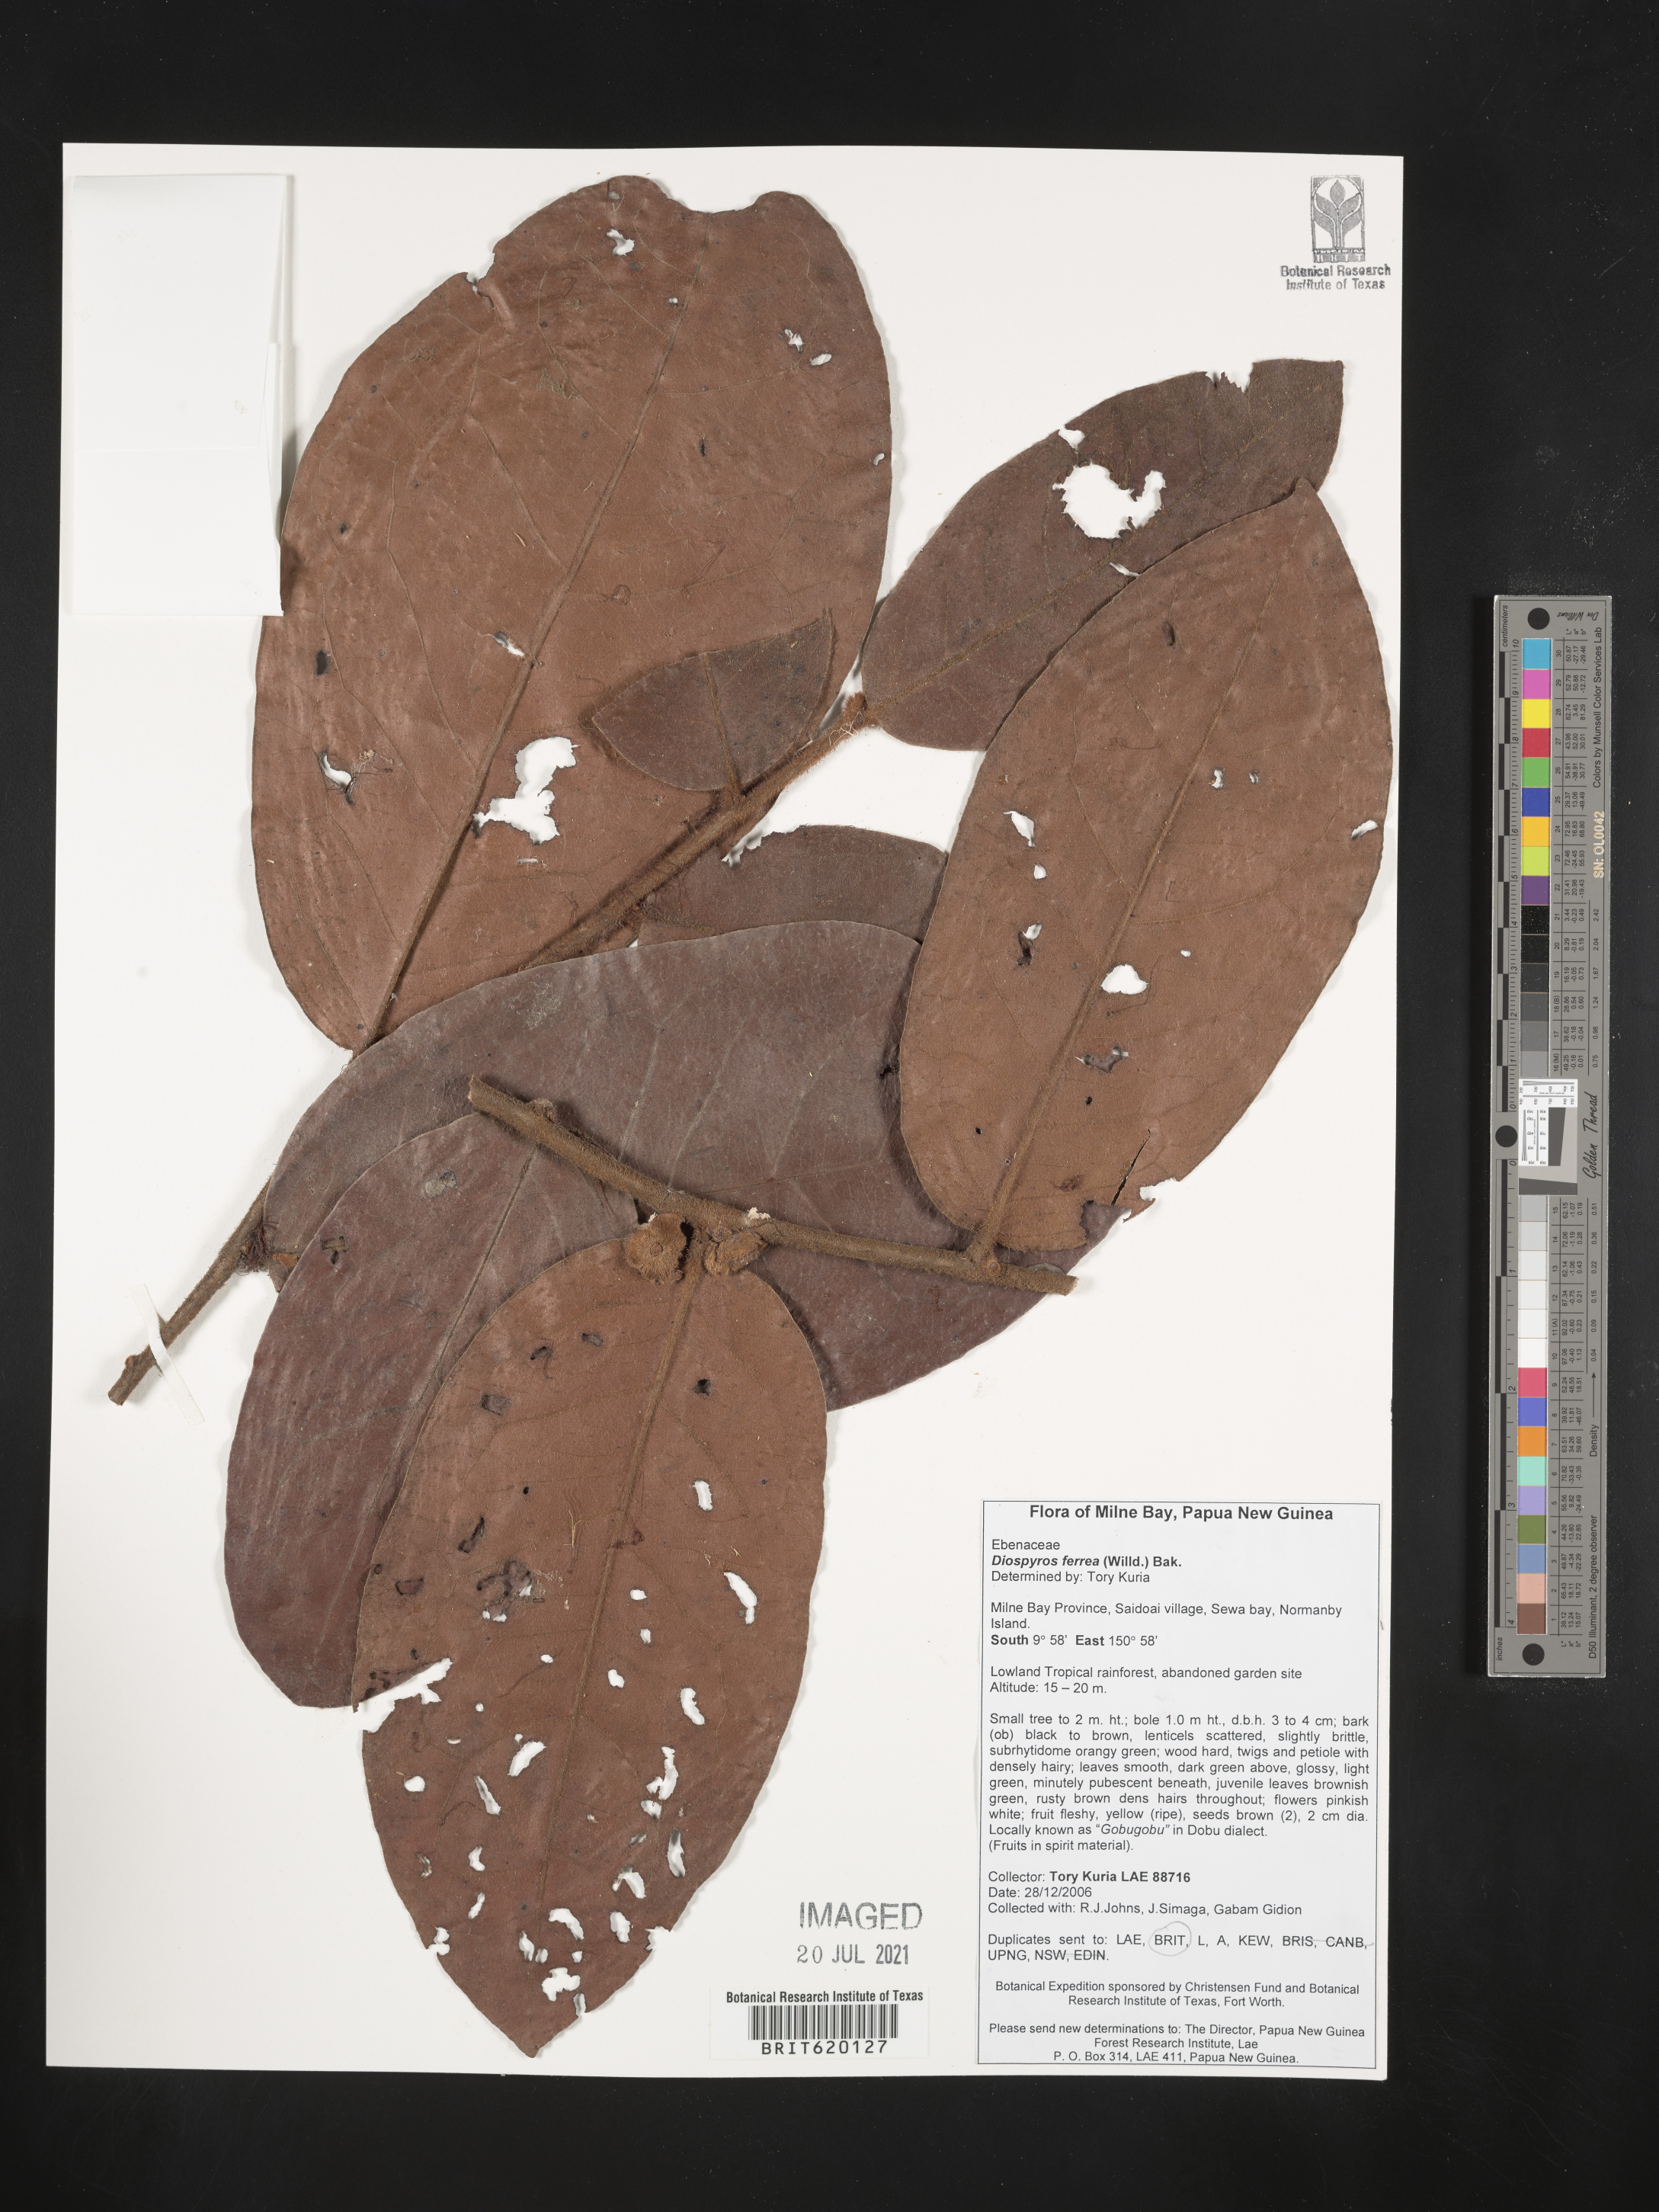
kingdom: Plantae
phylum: Tracheophyta
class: Magnoliopsida
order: Ericales
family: Ebenaceae
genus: Diospyros
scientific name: Diospyros ferrea
